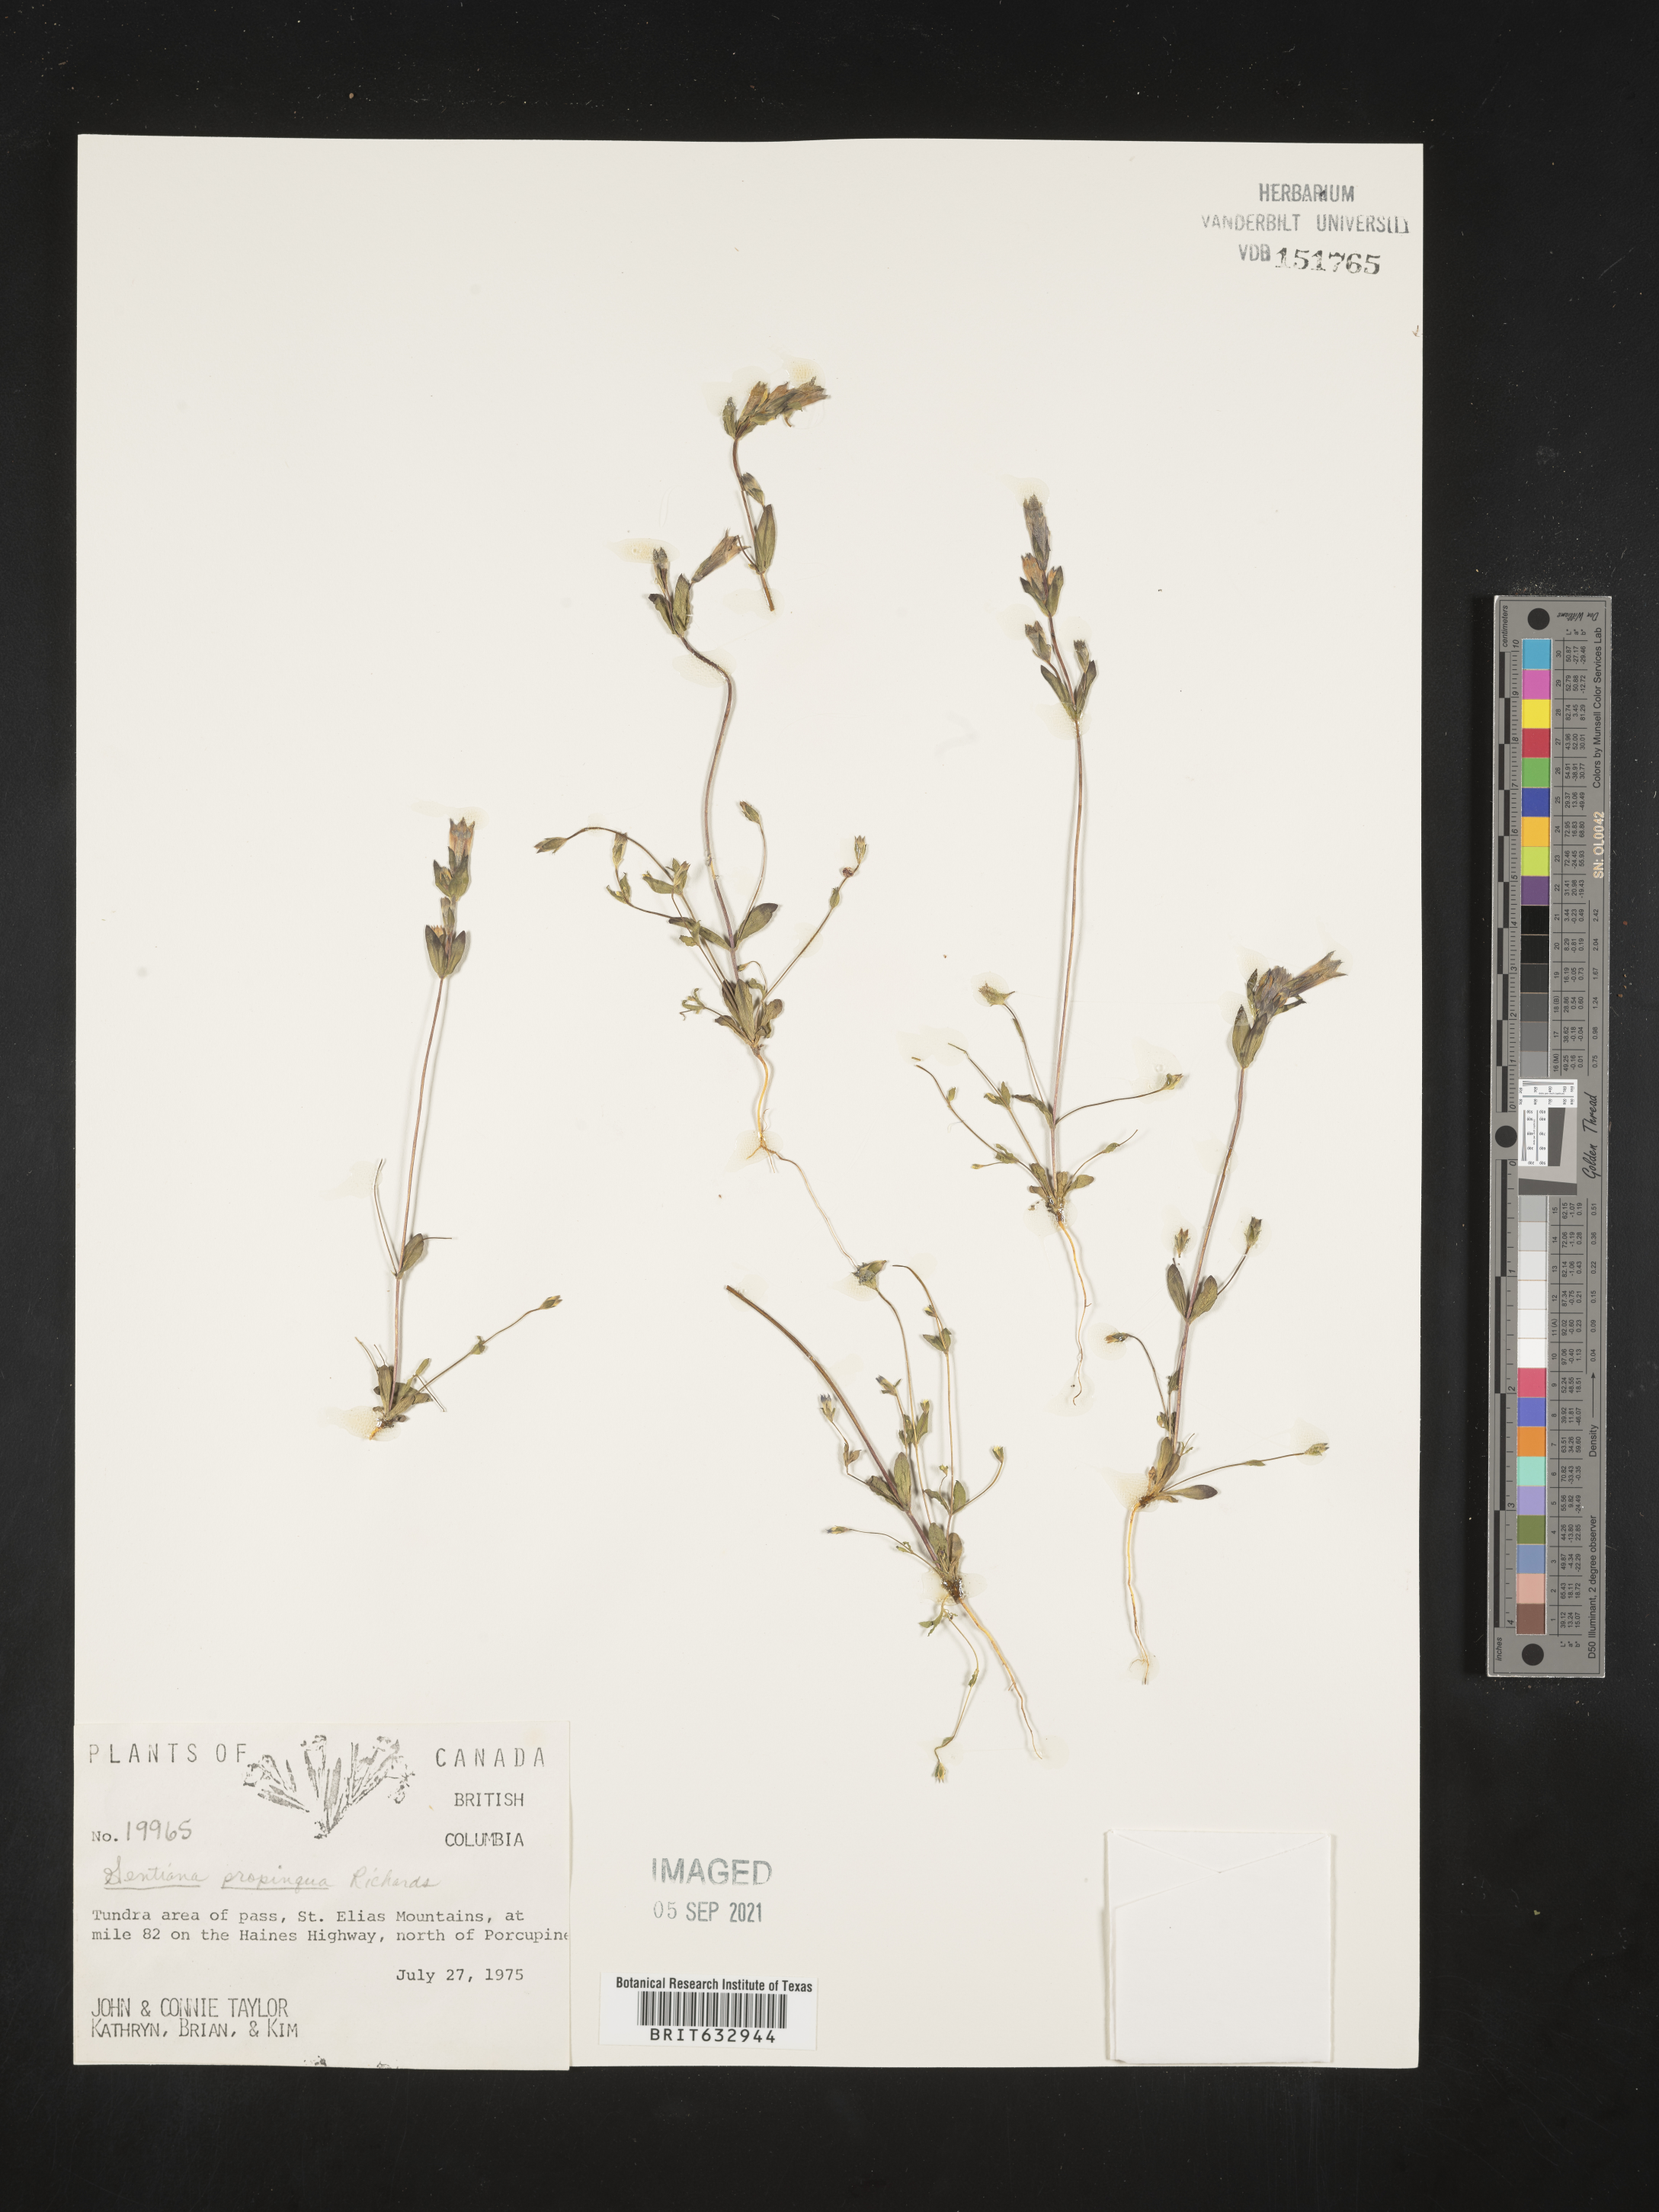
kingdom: Plantae
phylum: Tracheophyta
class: Magnoliopsida
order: Gentianales
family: Gentianaceae
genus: Gentiana
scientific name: Gentiana
